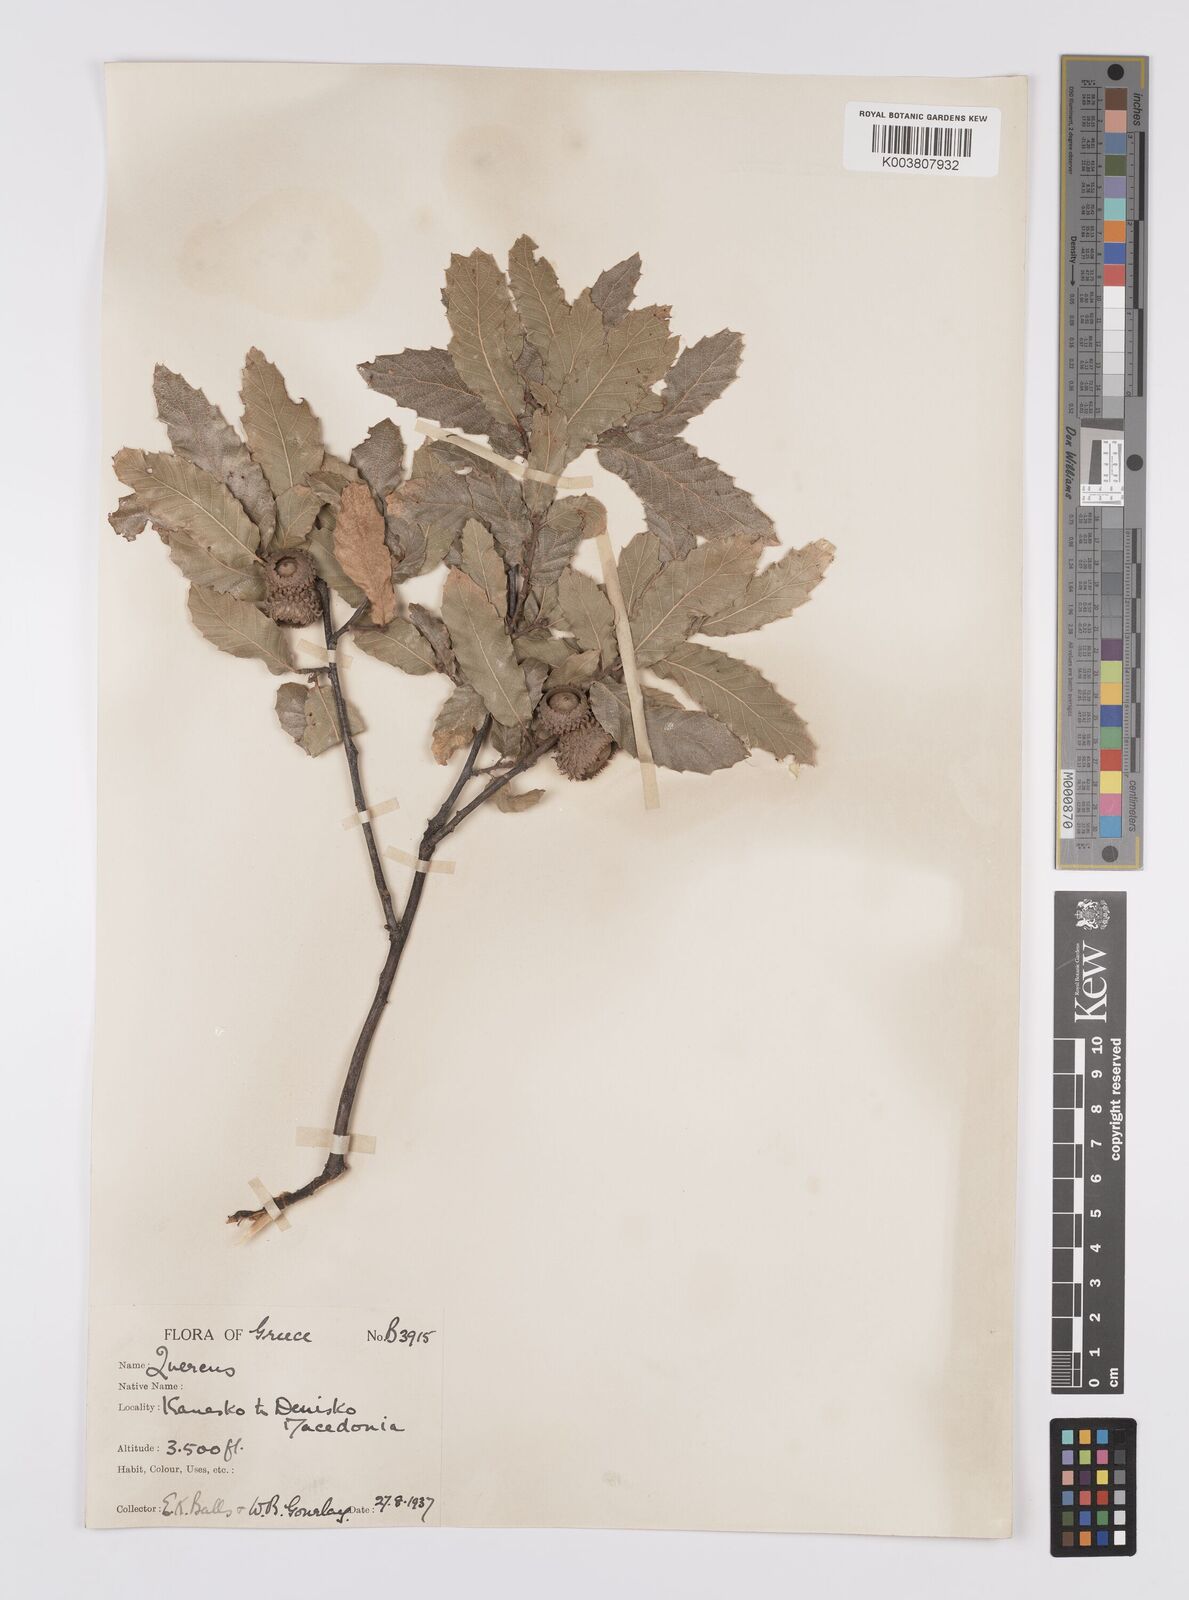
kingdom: Plantae
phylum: Tracheophyta
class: Magnoliopsida
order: Fagales
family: Fagaceae
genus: Quercus
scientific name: Quercus trojana
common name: Macedonian oak
